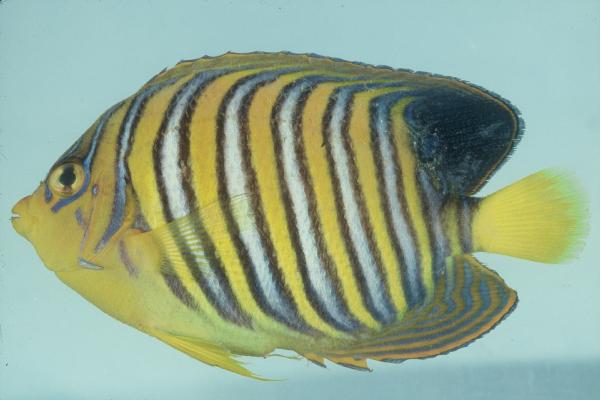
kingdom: Animalia
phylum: Chordata
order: Perciformes
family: Pomacanthidae
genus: Pygoplites
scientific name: Pygoplites diacanthus
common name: Regal angelfish
